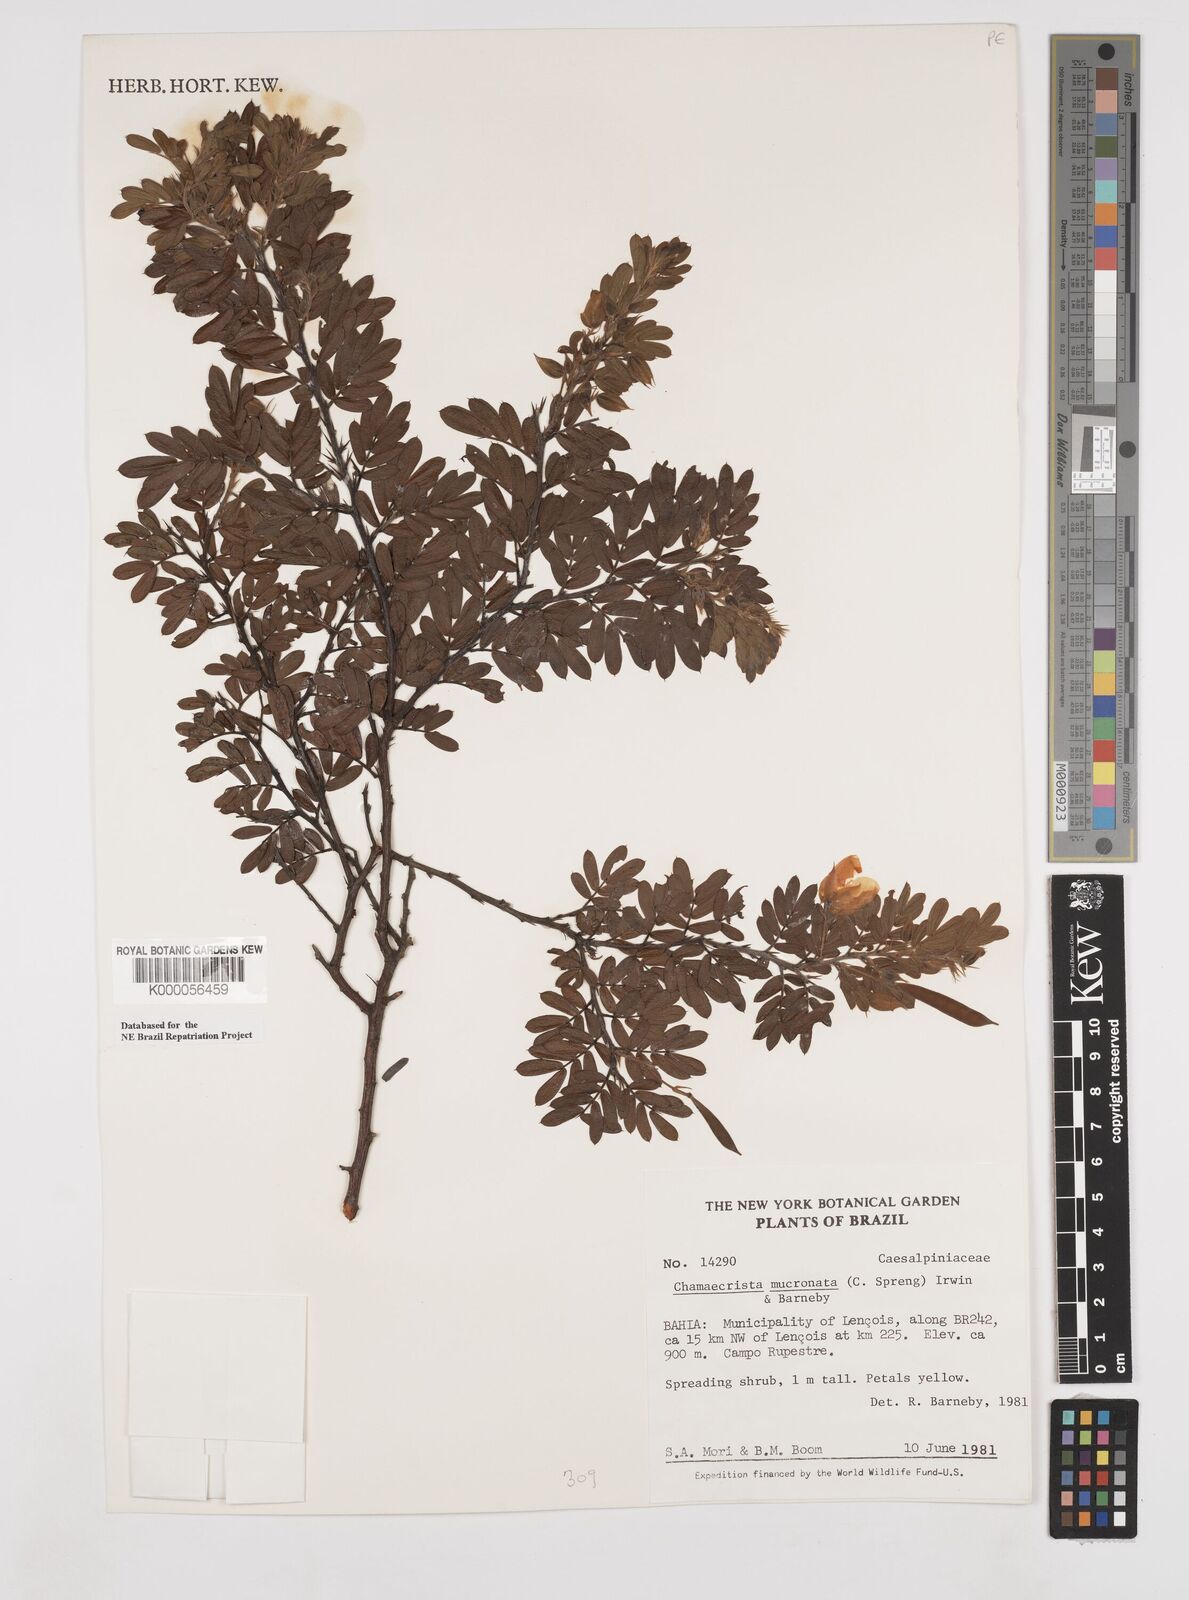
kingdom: Plantae
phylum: Tracheophyta
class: Magnoliopsida
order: Fabales
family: Fabaceae
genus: Chamaecrista
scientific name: Chamaecrista mucronata
